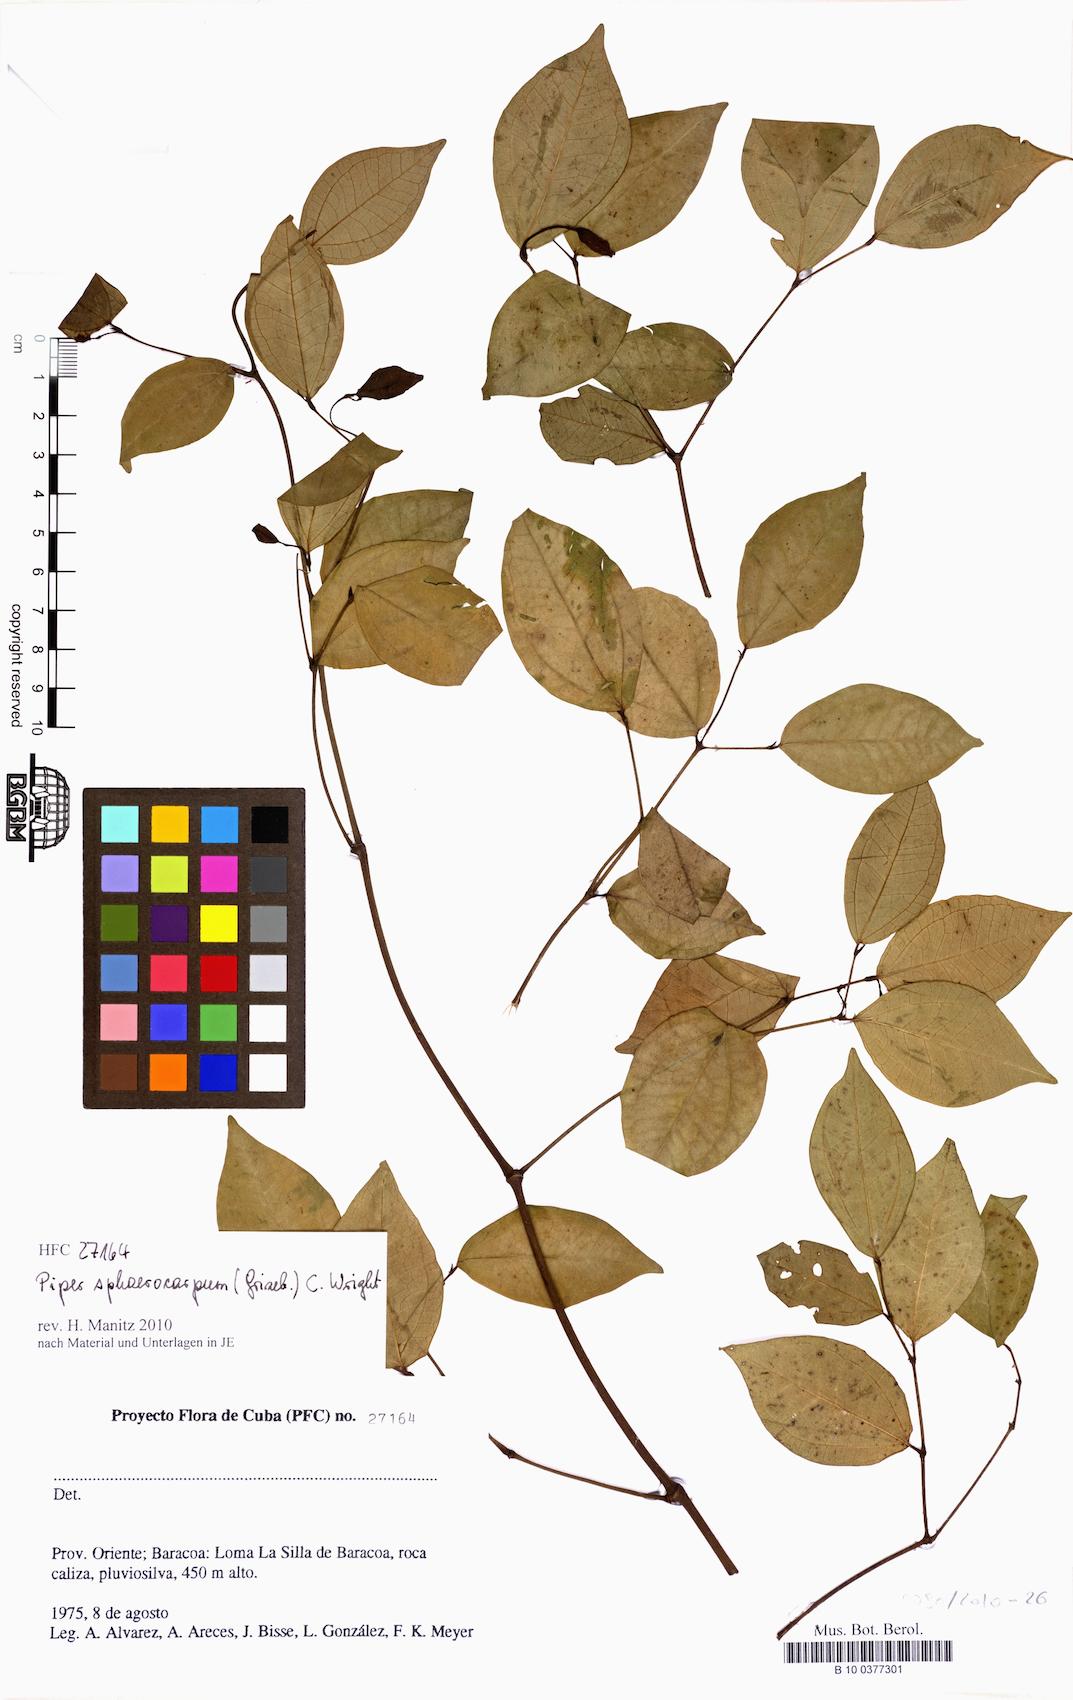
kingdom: Plantae
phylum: Tracheophyta
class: Magnoliopsida
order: Piperales
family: Piperaceae
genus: Piper
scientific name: Piper sphaerocarpum
